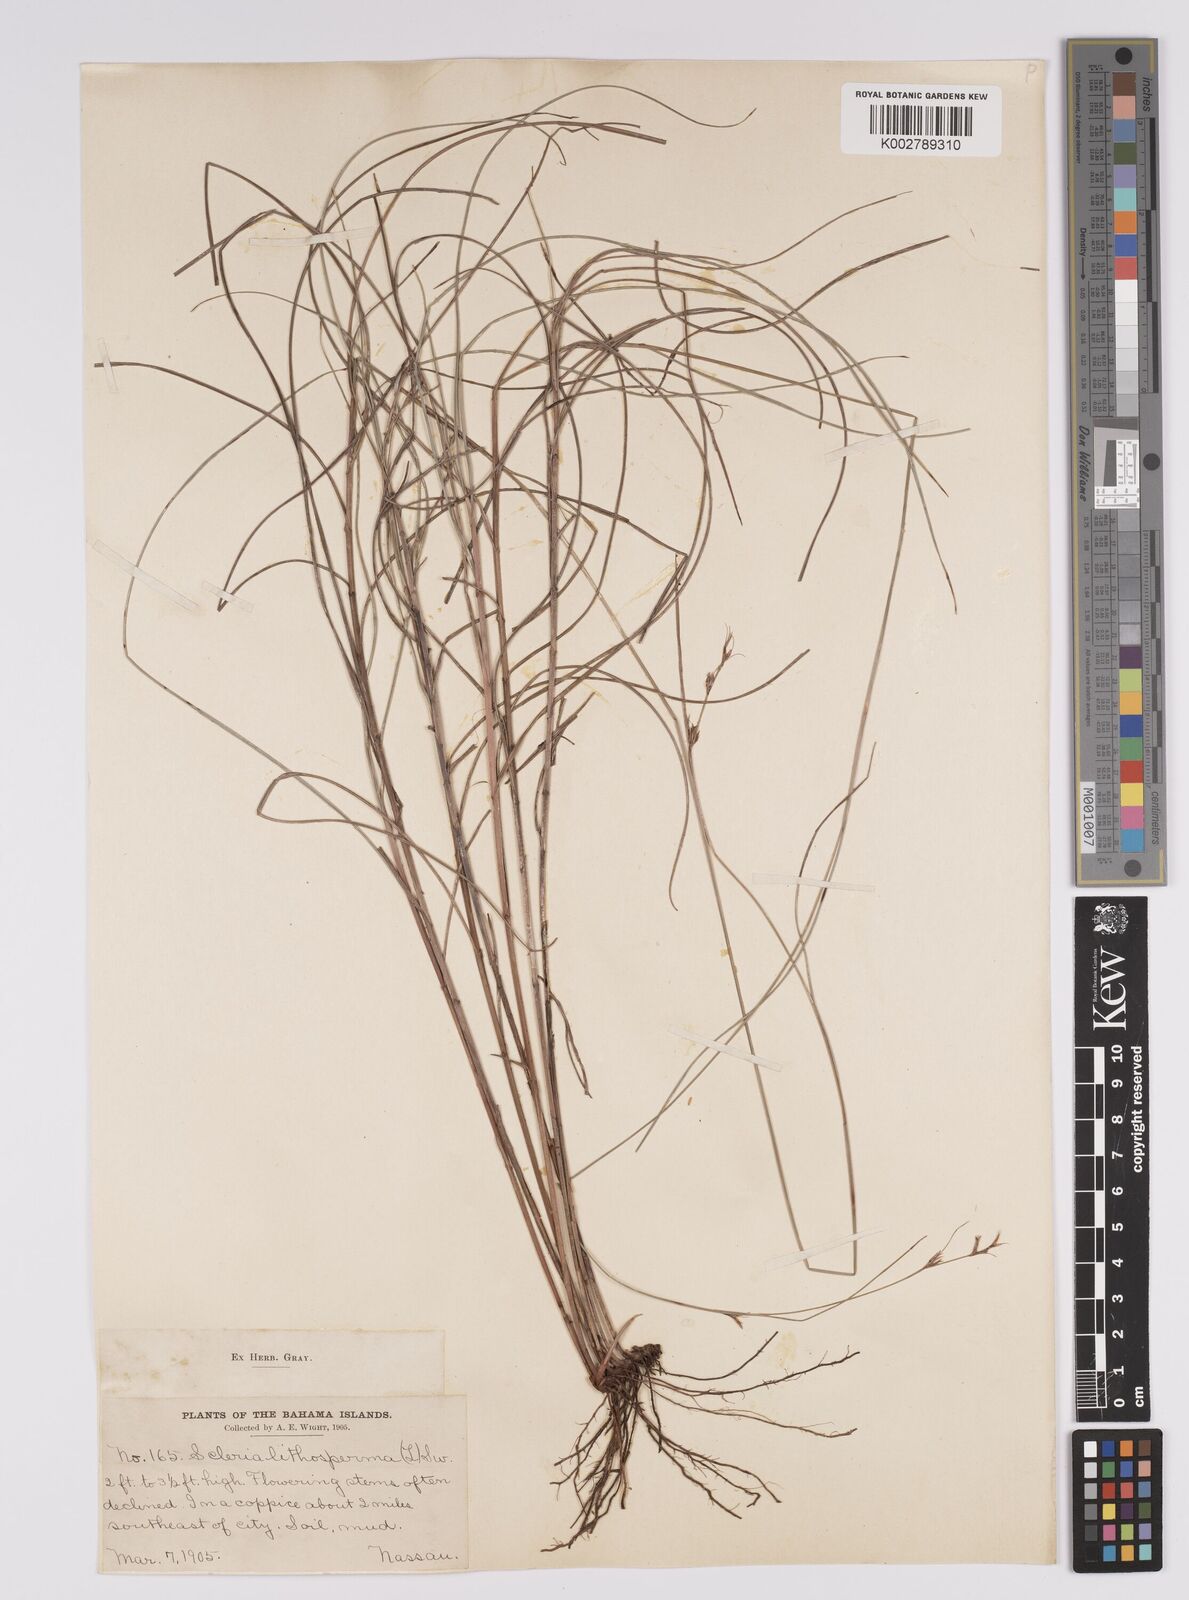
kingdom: Plantae
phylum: Tracheophyta
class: Liliopsida
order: Poales
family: Cyperaceae
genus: Scleria
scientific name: Scleria lithosperma
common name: Florida keys nut-rush
